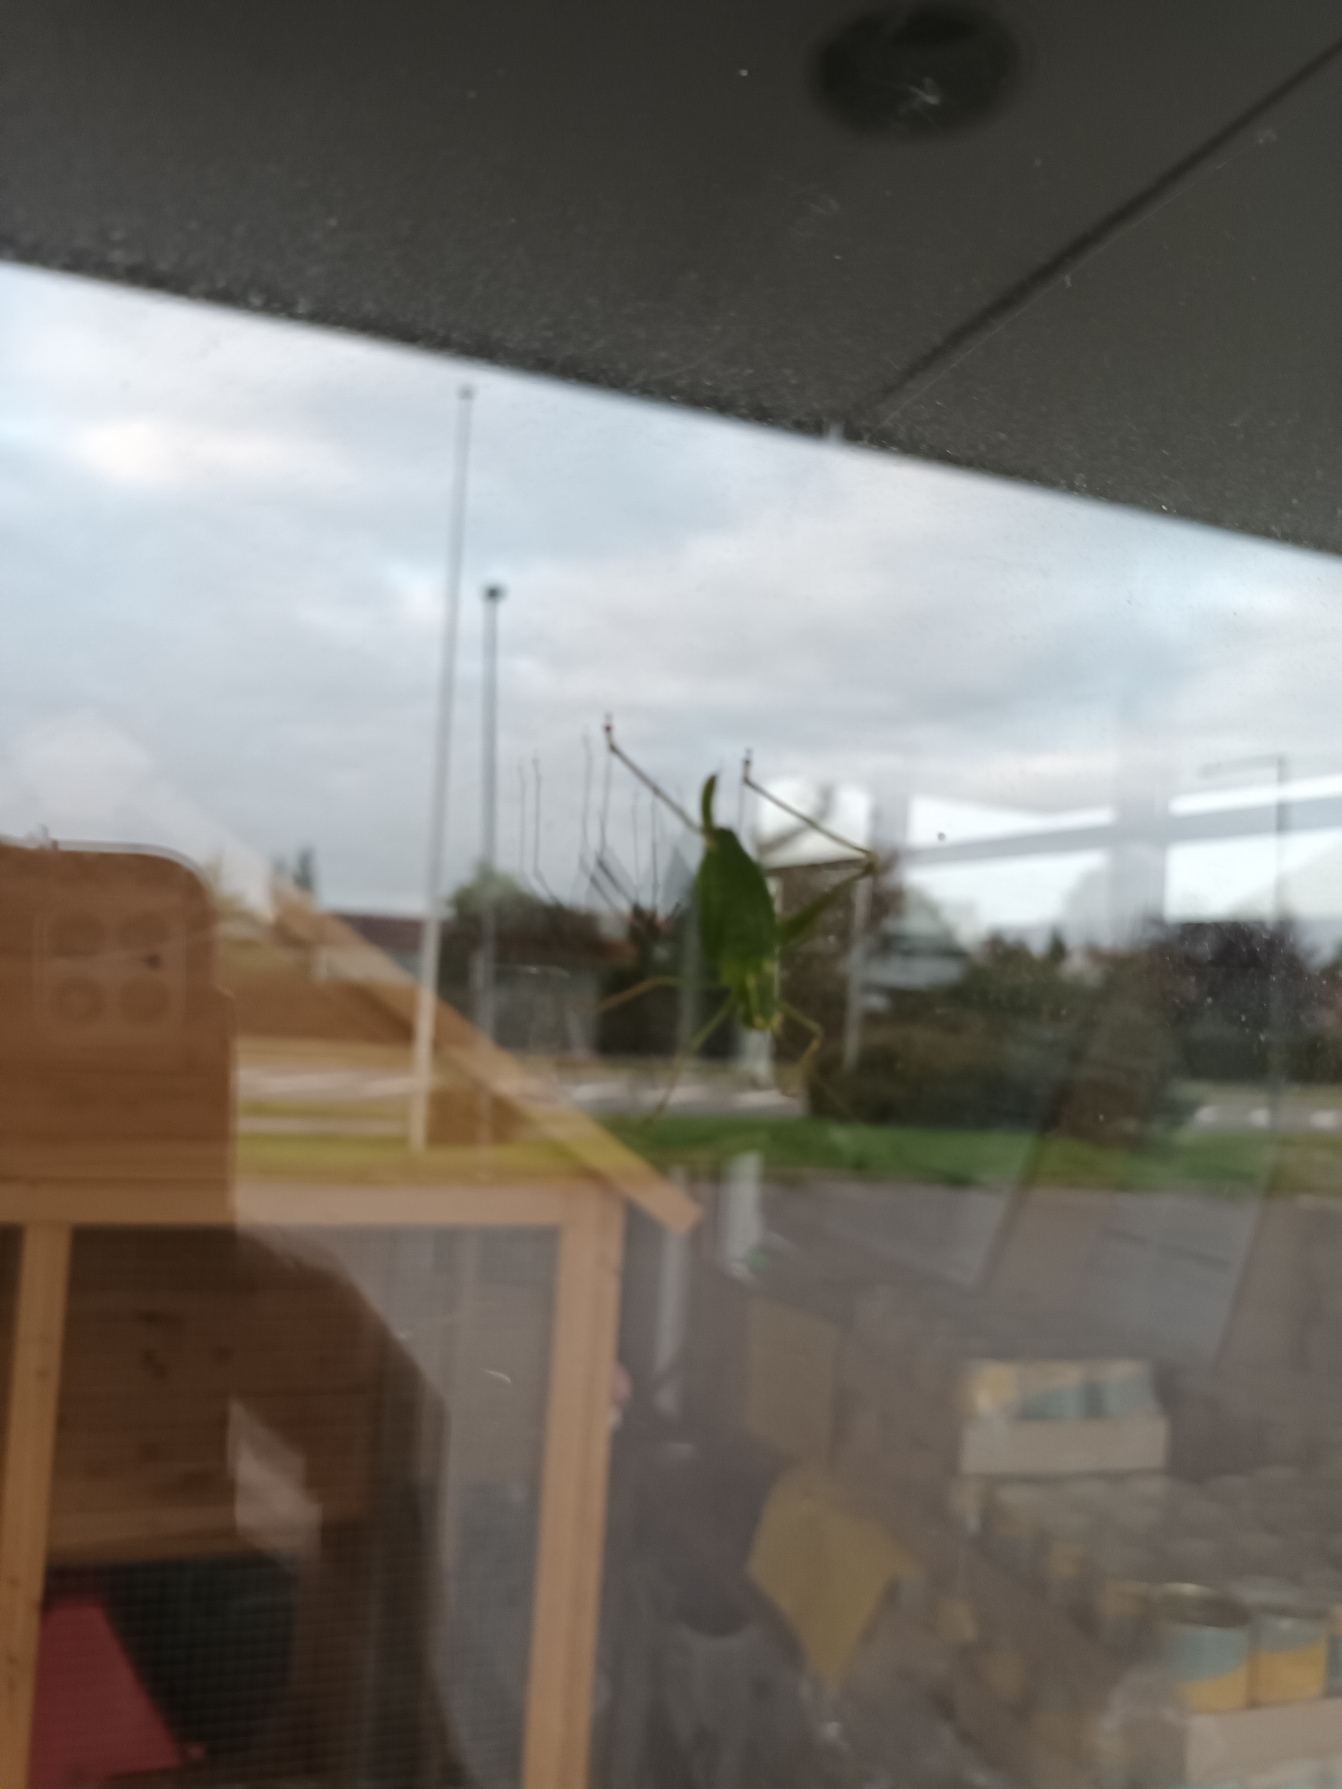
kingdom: Animalia
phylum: Arthropoda
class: Insecta
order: Orthoptera
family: Tettigoniidae
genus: Leptophyes
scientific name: Leptophyes punctatissima
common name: Krumknivgræshoppe
